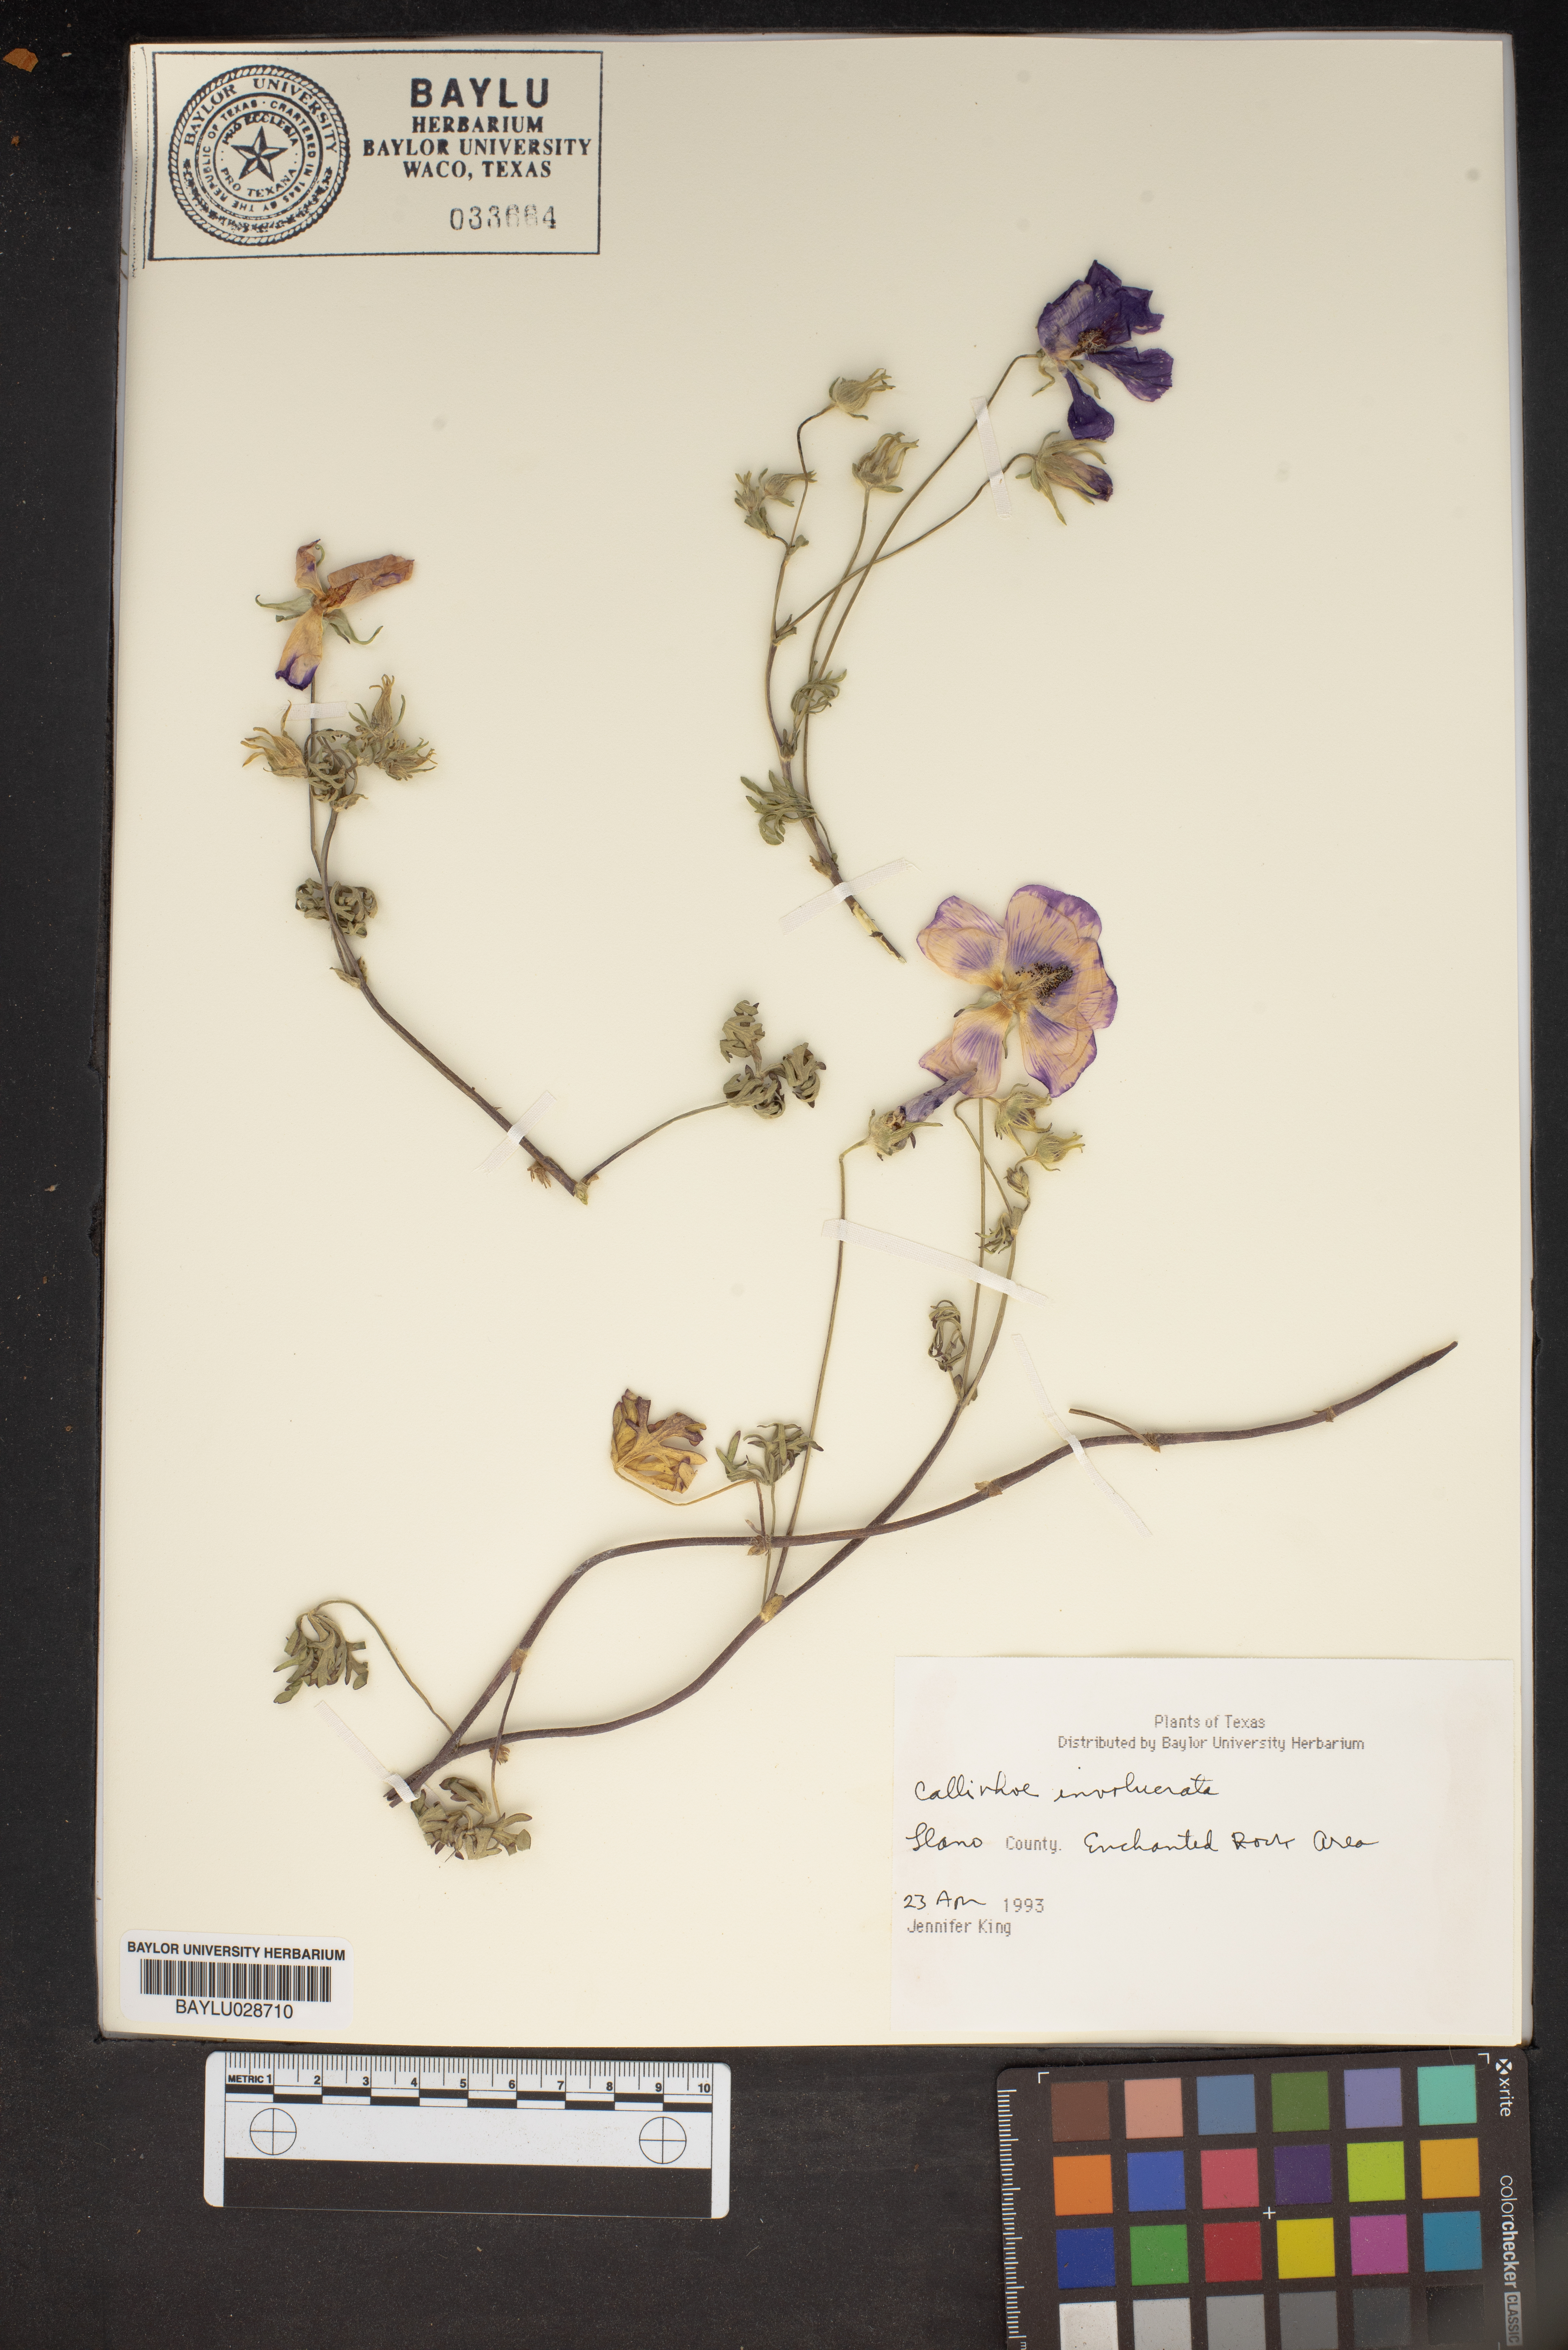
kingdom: Plantae
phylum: Tracheophyta
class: Magnoliopsida
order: Malvales
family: Malvaceae
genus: Callirhoe
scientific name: Callirhoe involucrata
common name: Purple poppy-mallow
